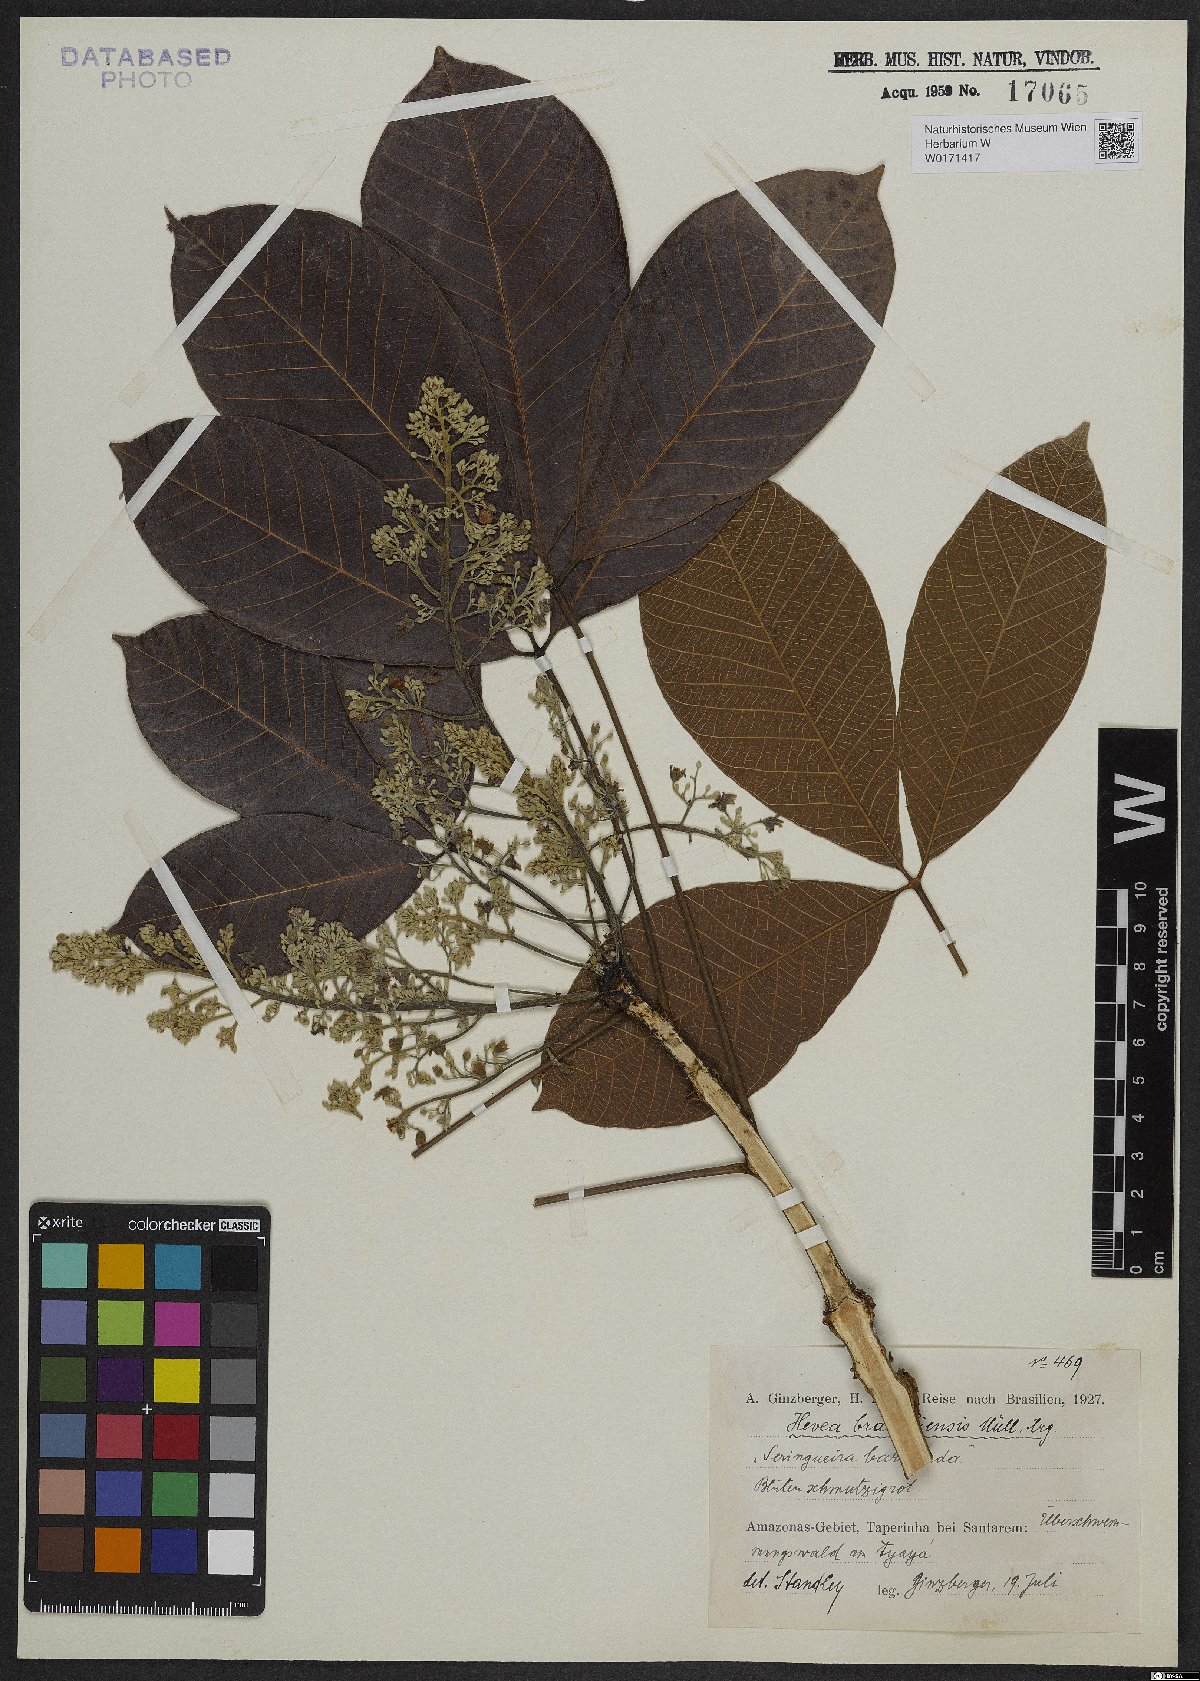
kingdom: Plantae
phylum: Tracheophyta
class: Magnoliopsida
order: Malpighiales
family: Euphorbiaceae
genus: Hevea
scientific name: Hevea brasiliensis
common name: Natural rubber
